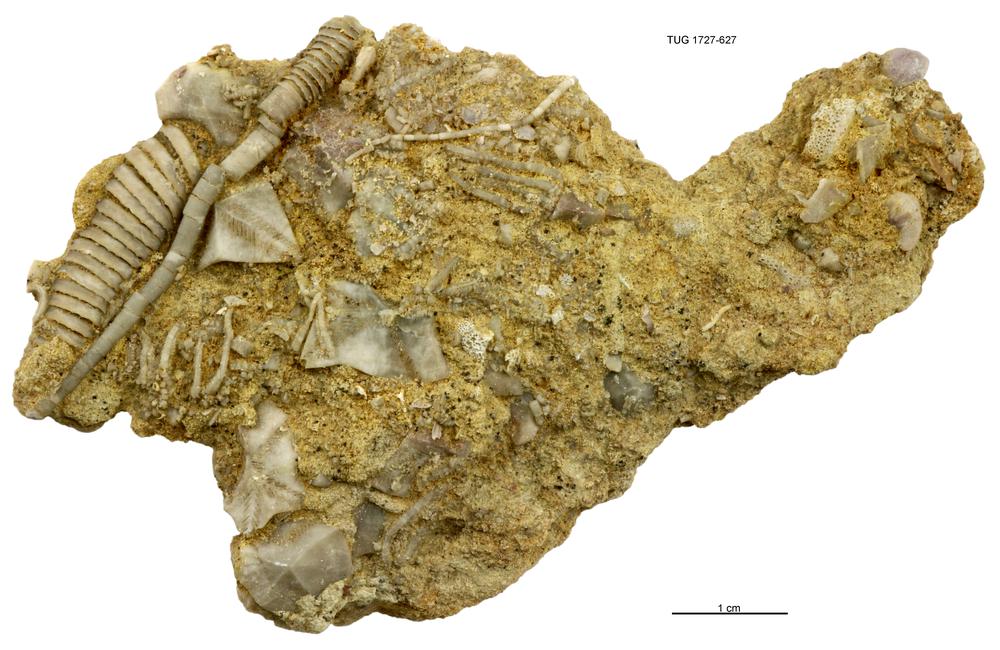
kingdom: Animalia
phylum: Echinodermata
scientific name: Echinodermata
